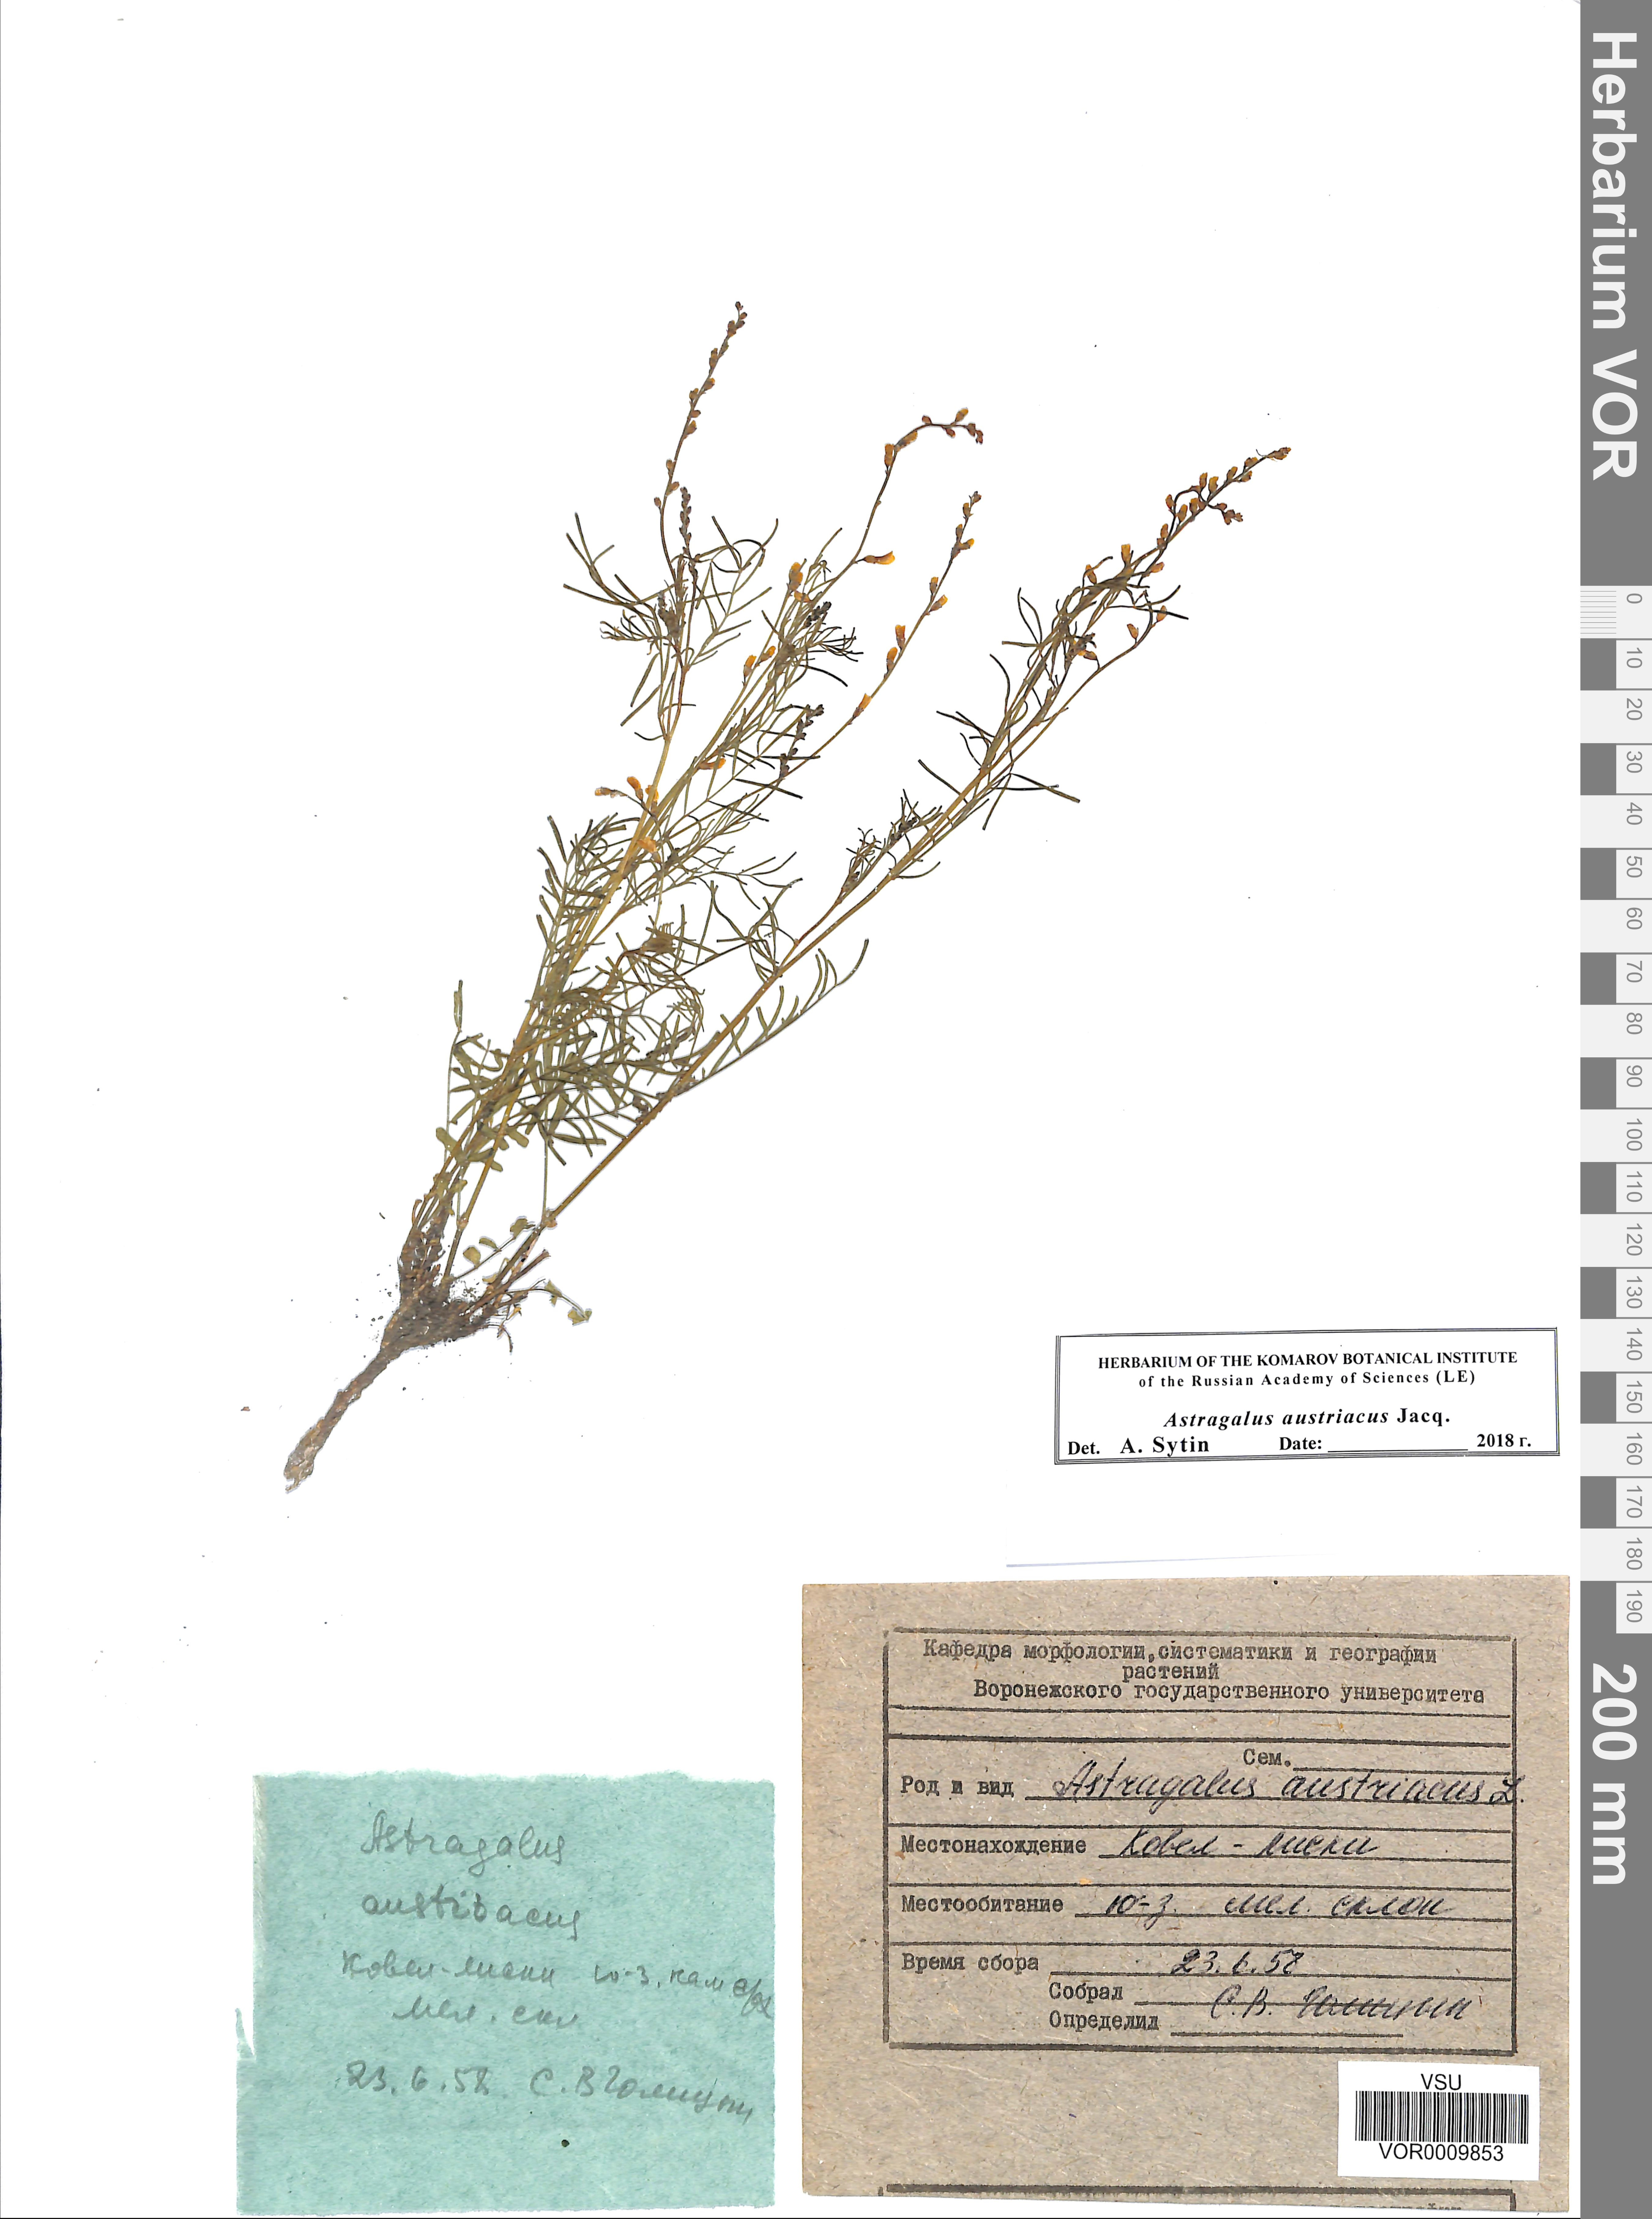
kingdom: Plantae
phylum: Tracheophyta
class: Magnoliopsida
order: Fabales
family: Fabaceae
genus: Astragalus
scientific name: Astragalus austriacus
